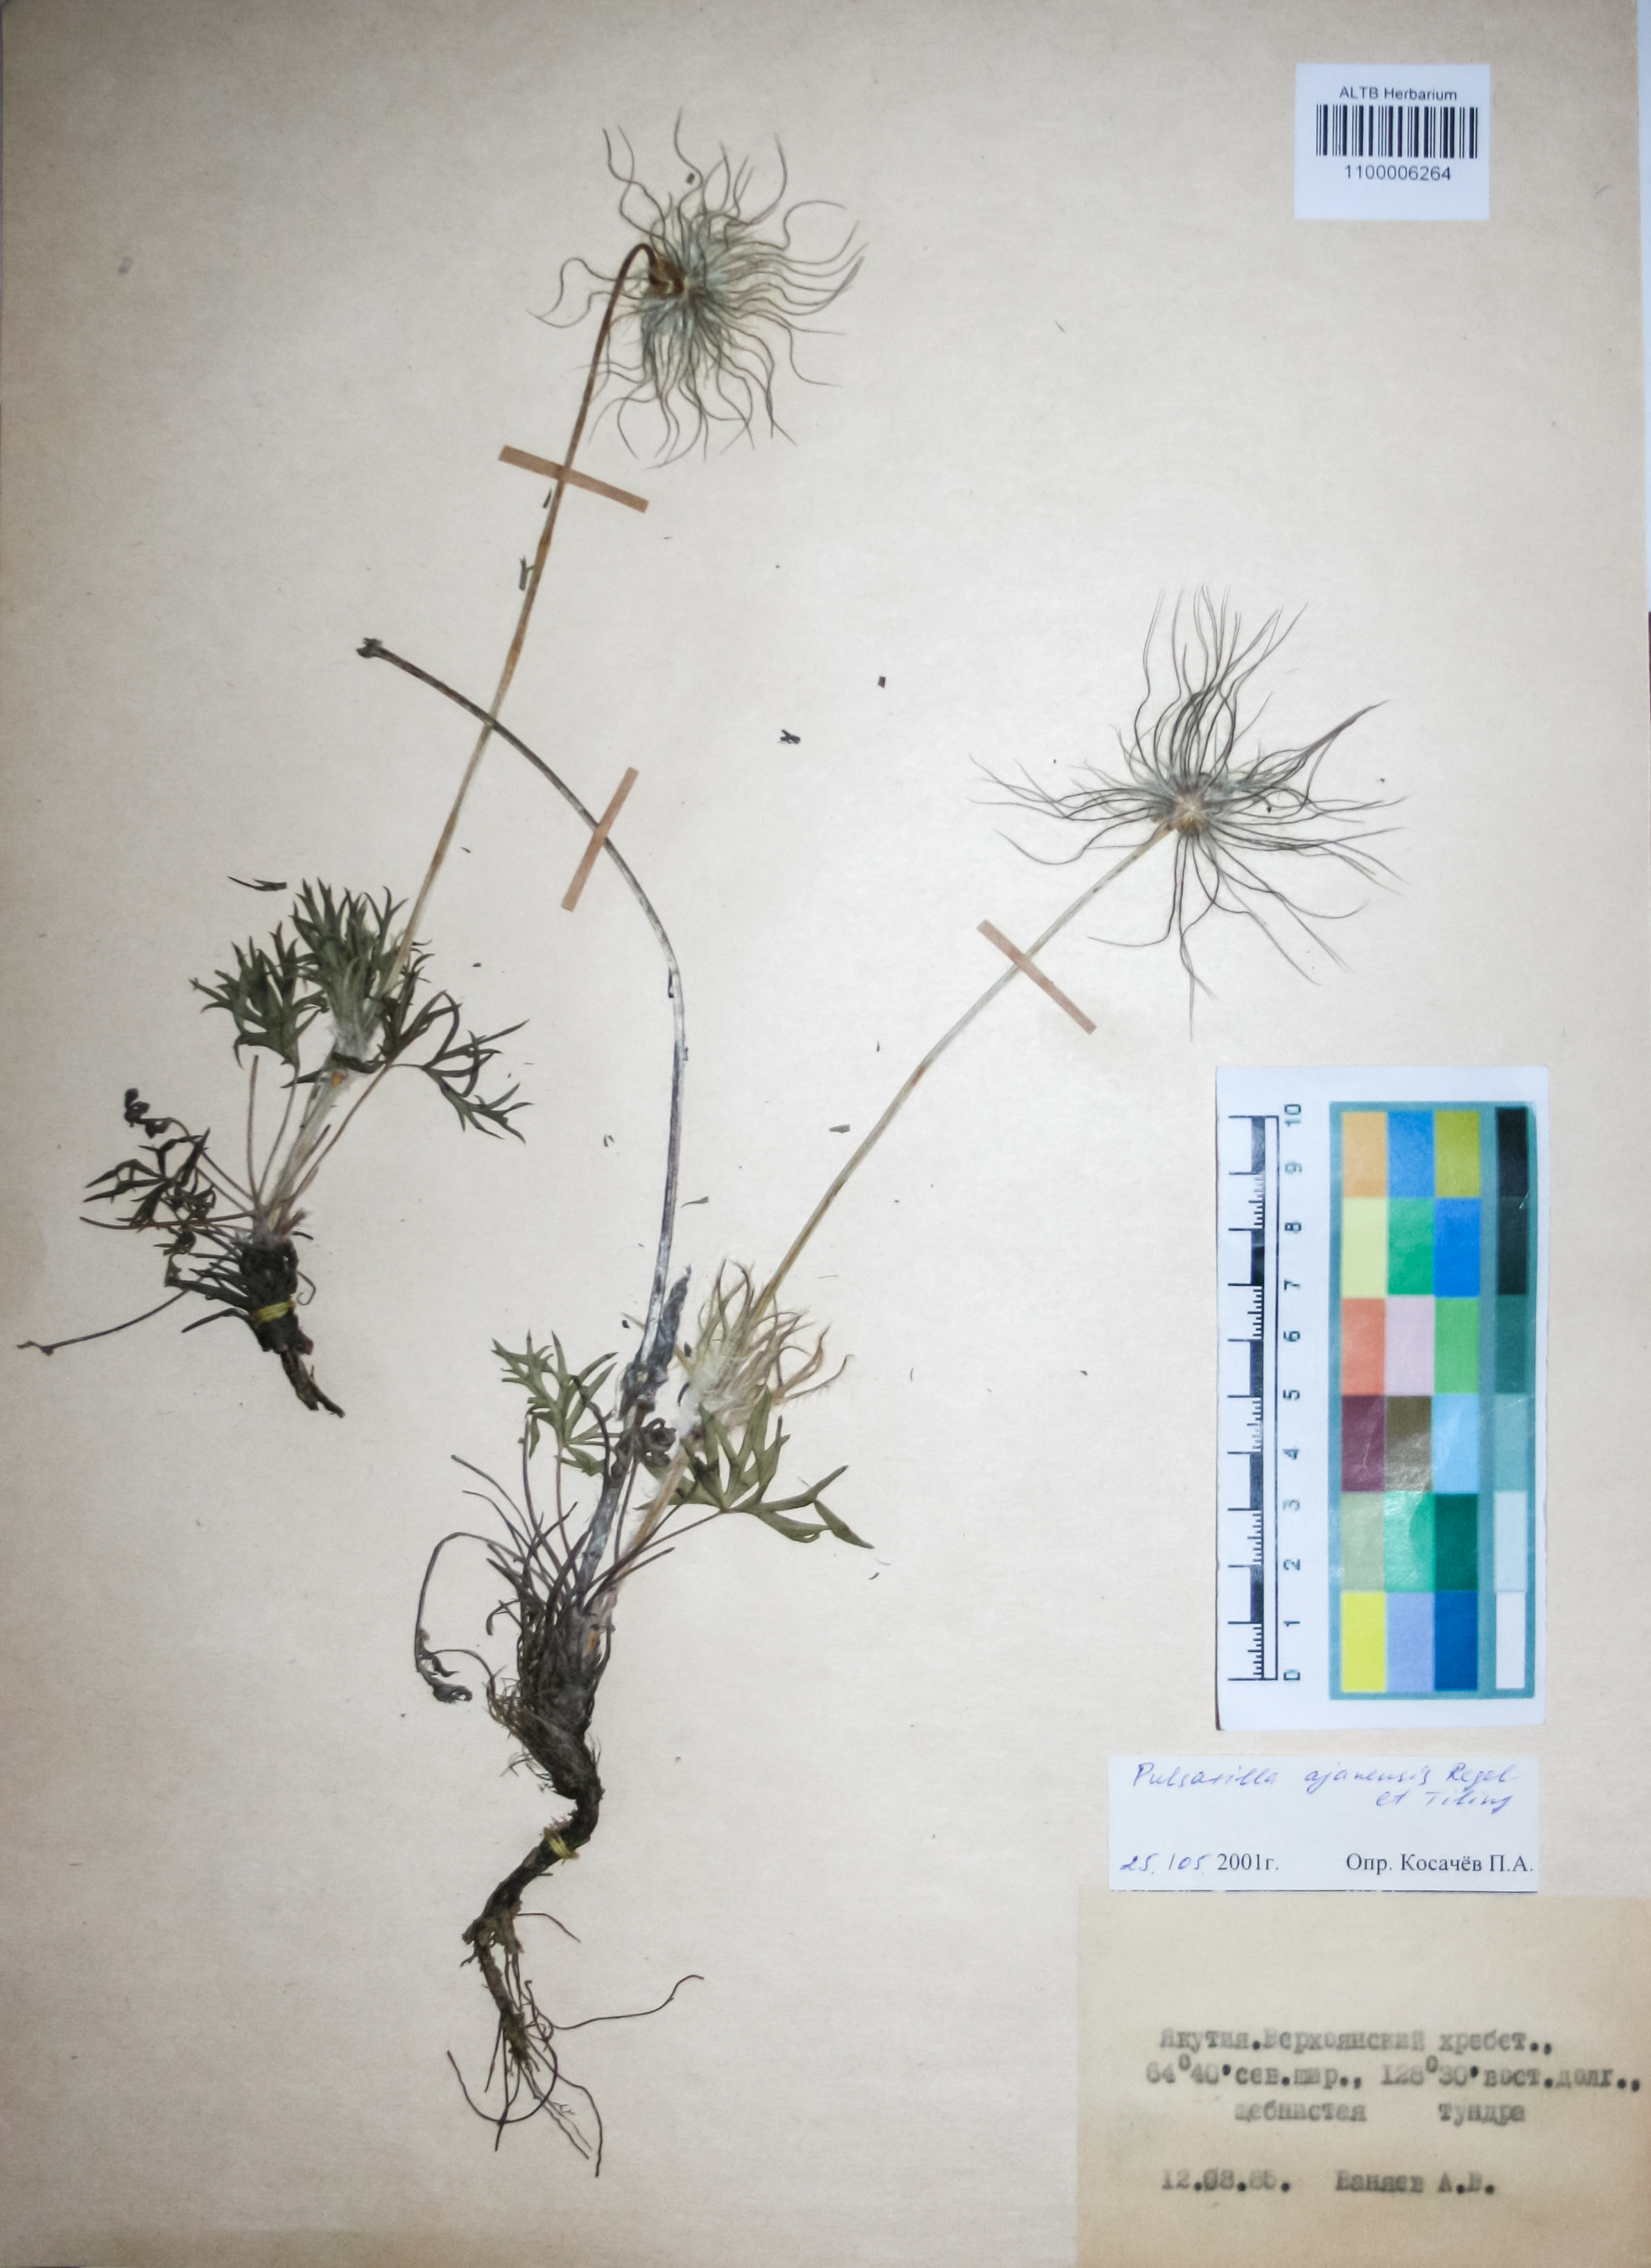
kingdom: Plantae
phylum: Tracheophyta
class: Magnoliopsida
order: Ranunculales
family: Ranunculaceae
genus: Pulsatilla
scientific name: Pulsatilla ajanensis
